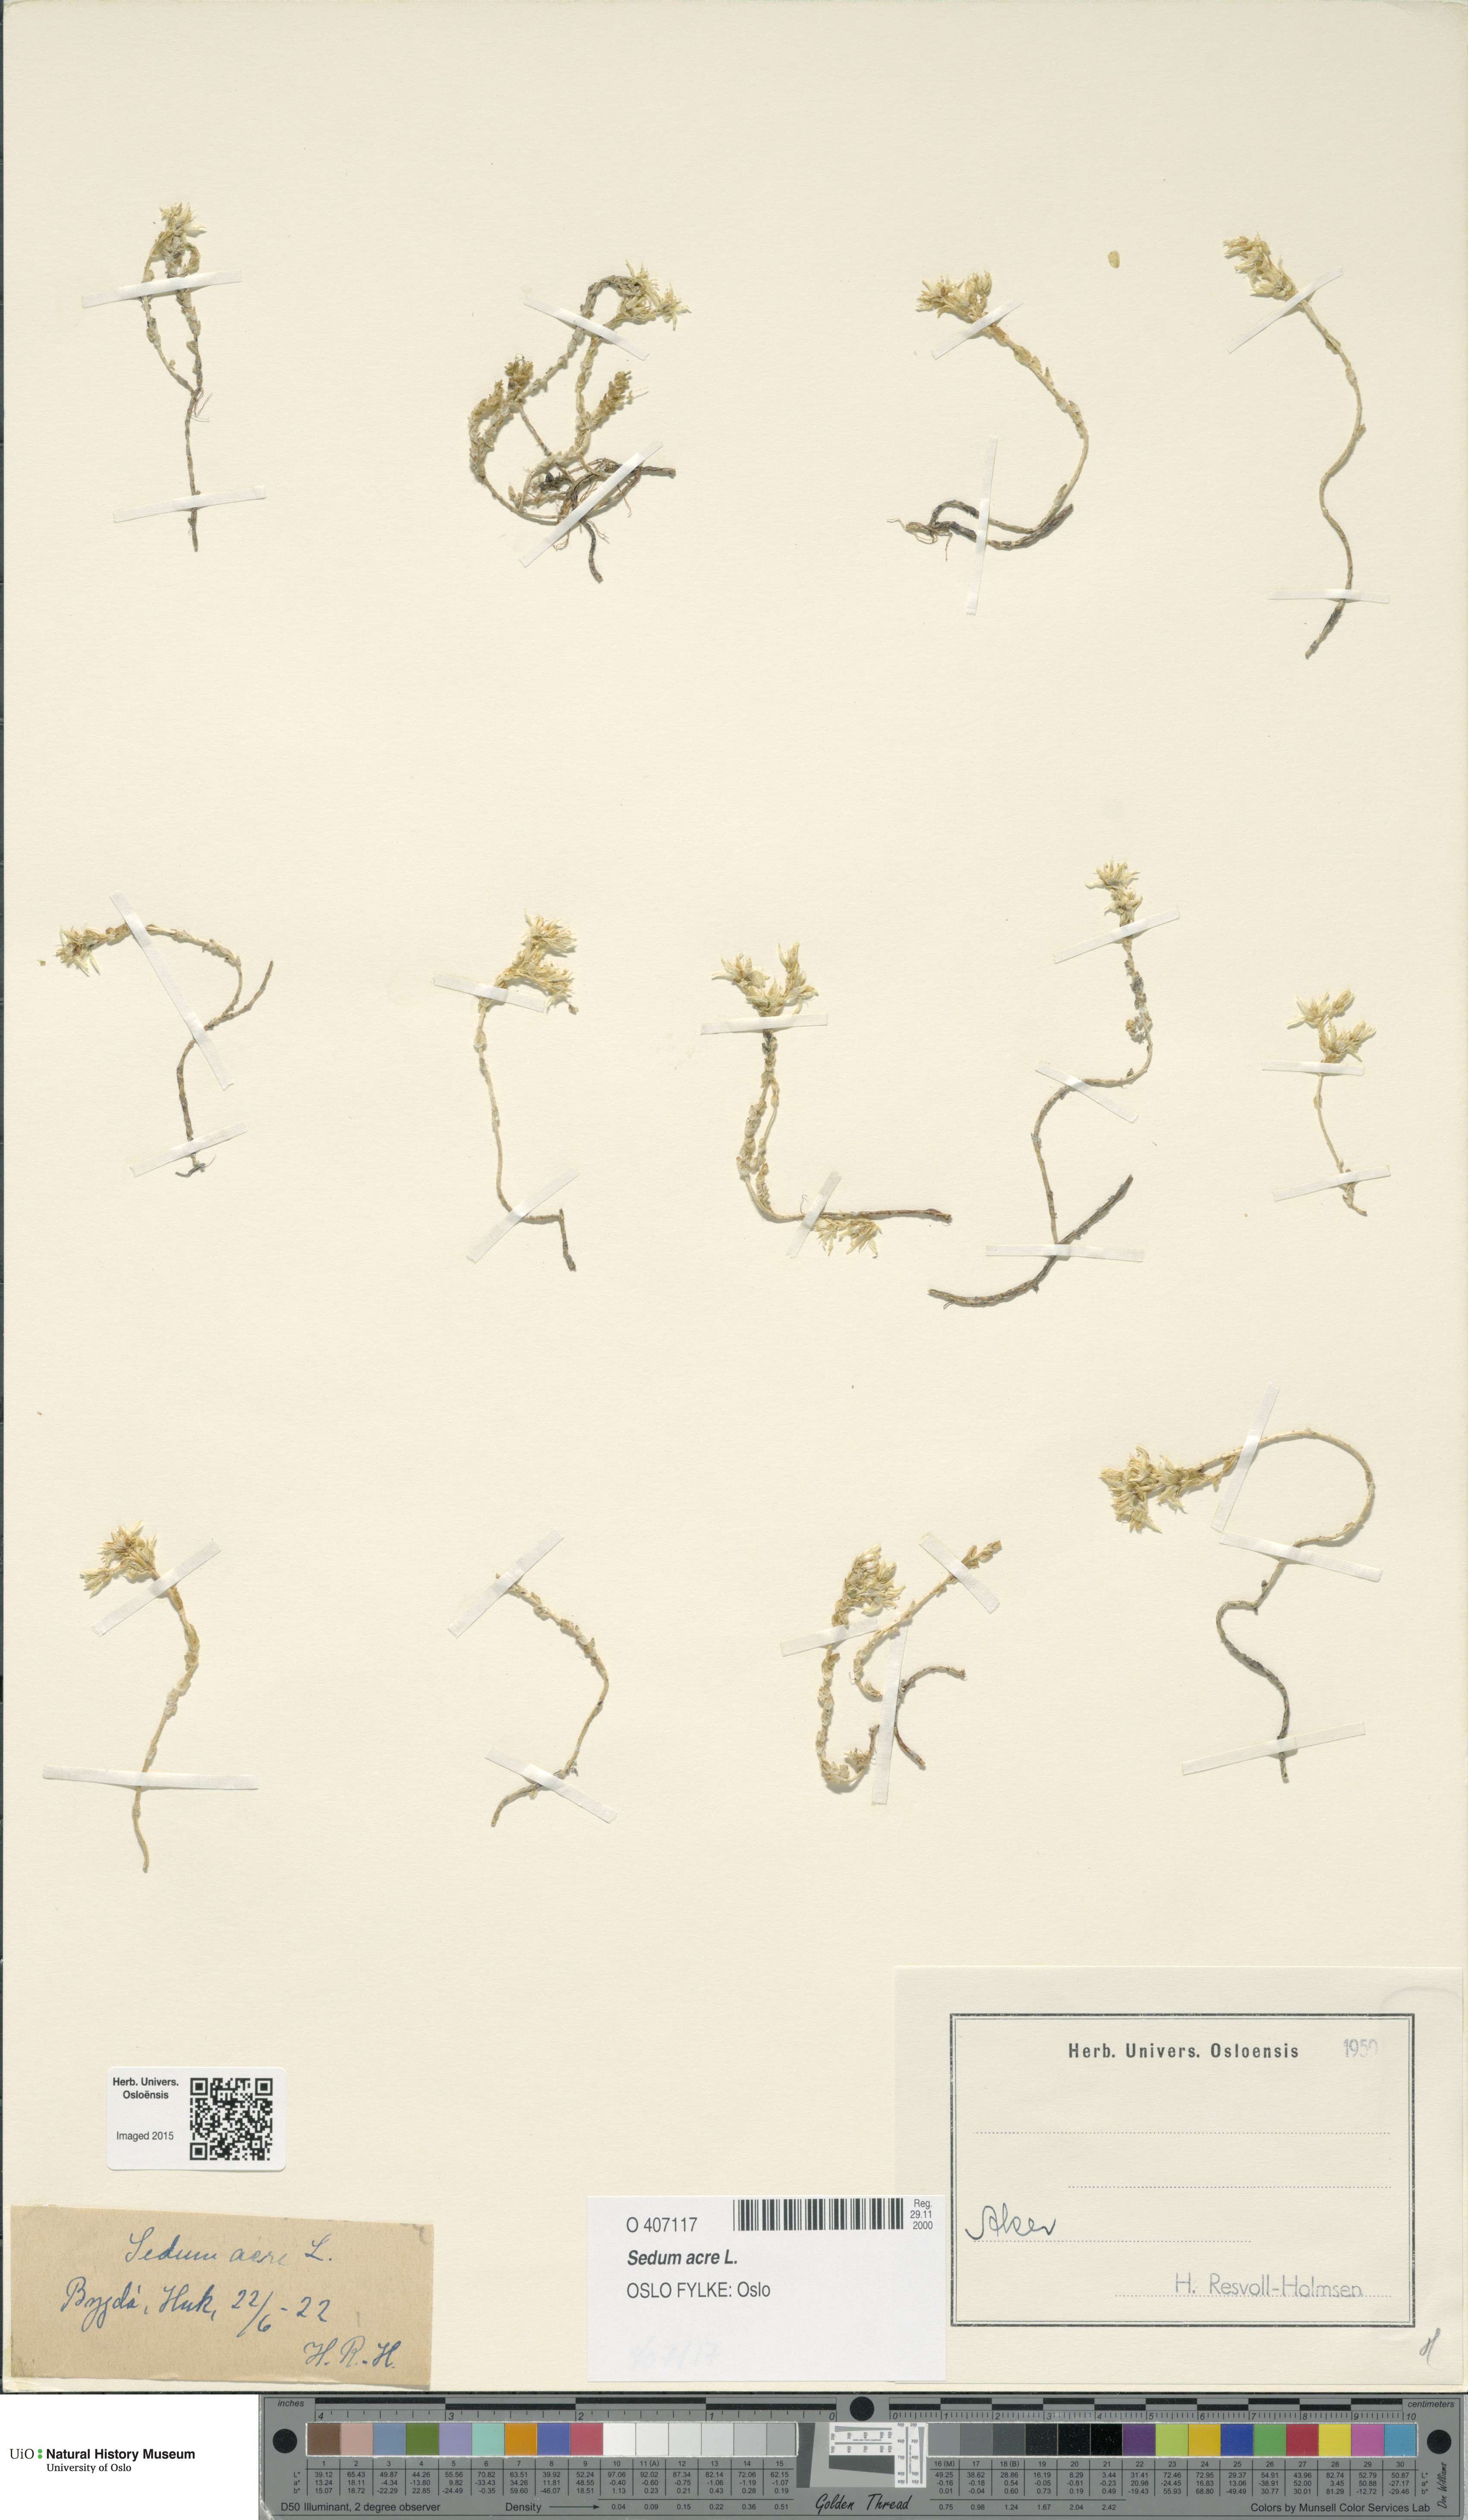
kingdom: Plantae
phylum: Tracheophyta
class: Magnoliopsida
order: Saxifragales
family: Crassulaceae
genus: Sedum
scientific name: Sedum acre
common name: Biting stonecrop
